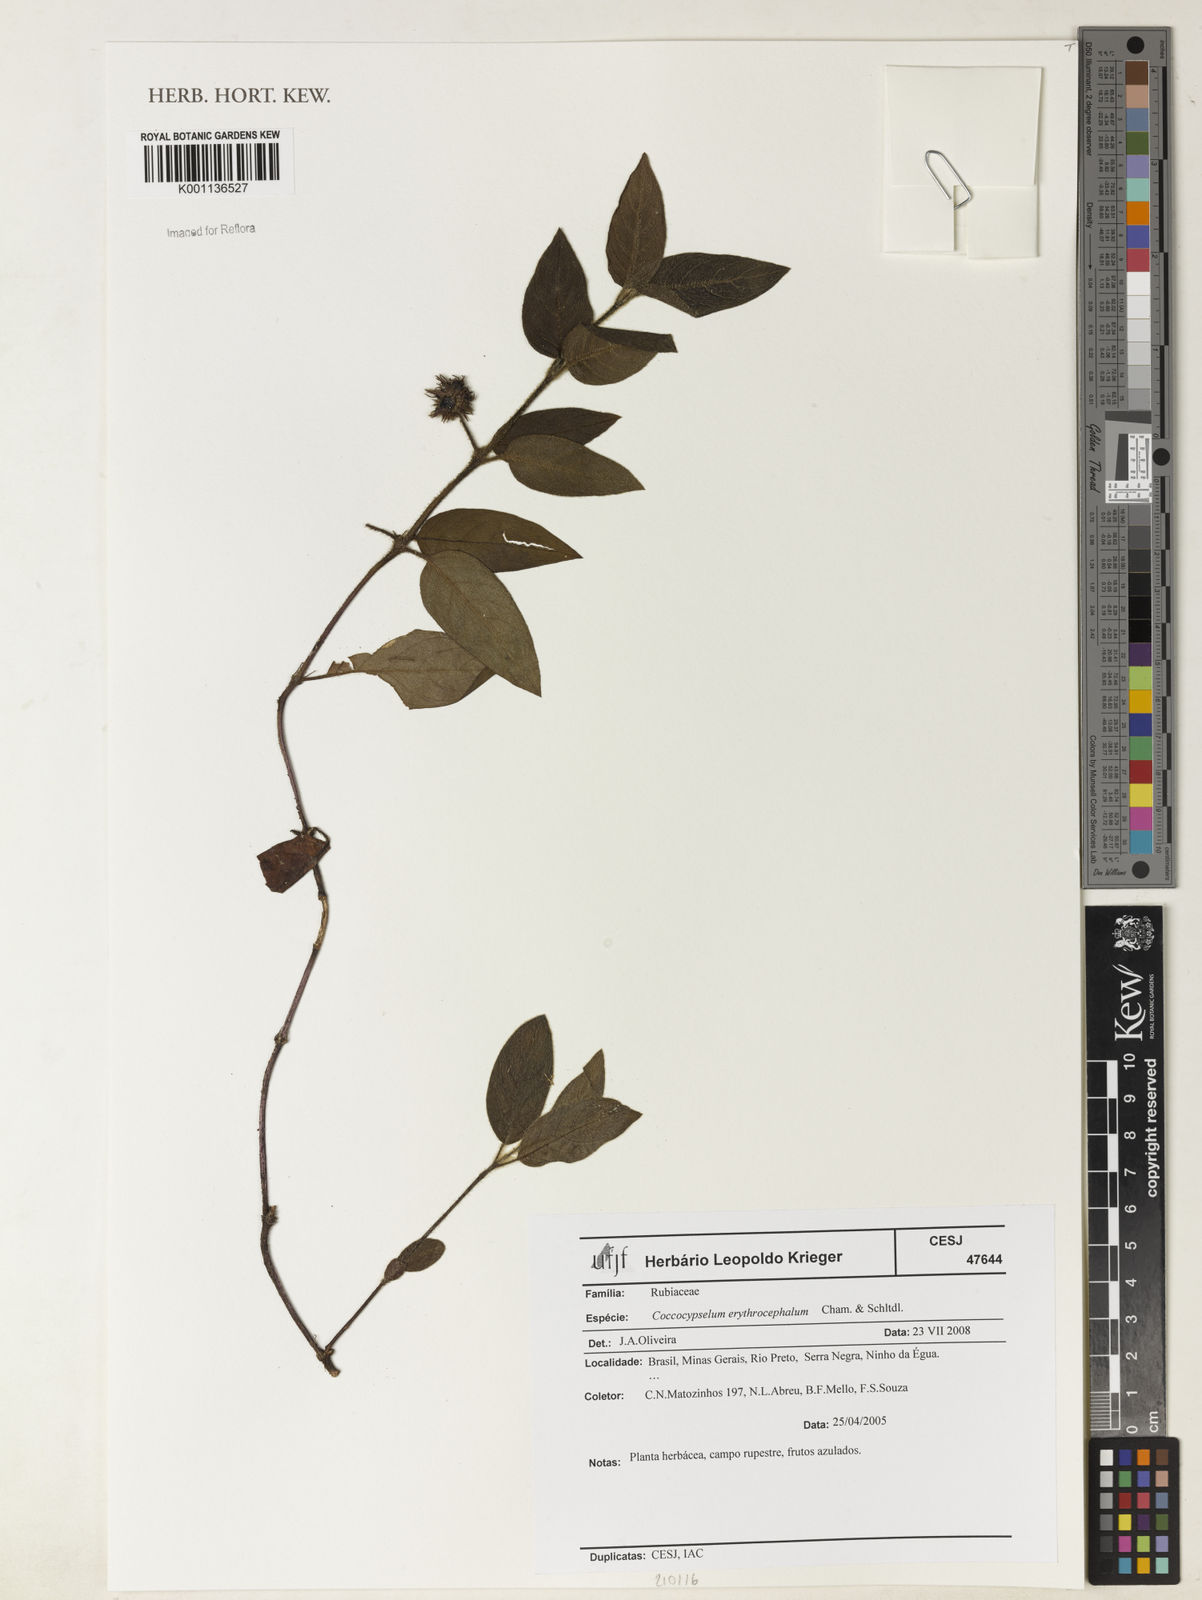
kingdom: Plantae
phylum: Tracheophyta
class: Magnoliopsida
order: Gentianales
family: Rubiaceae
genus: Coccocypselum
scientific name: Coccocypselum erythrocephalum
